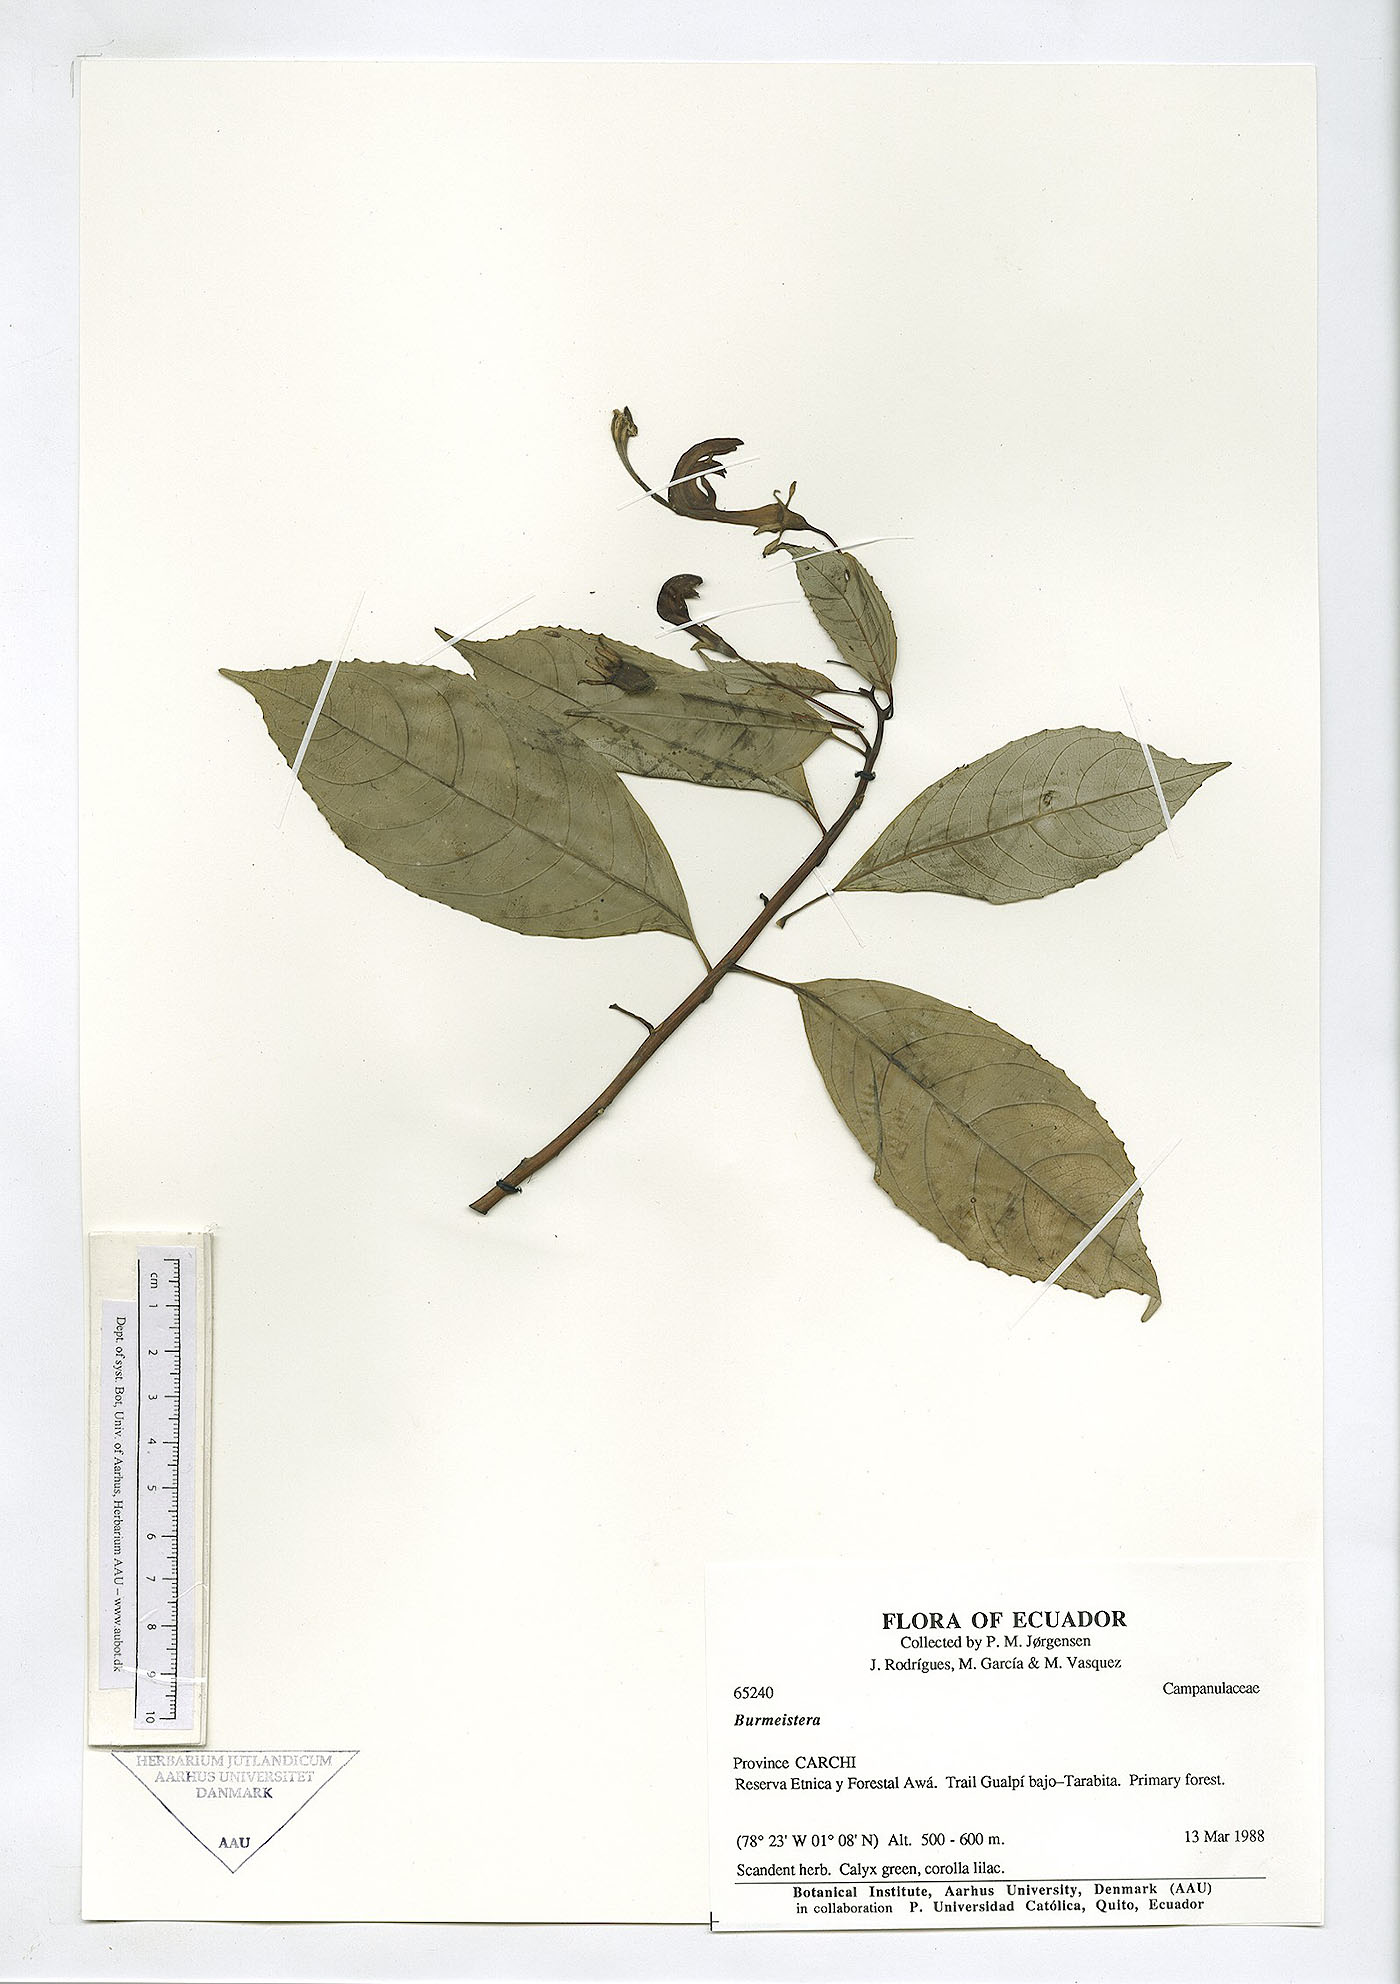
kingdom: Plantae
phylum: Tracheophyta
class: Magnoliopsida
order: Asterales
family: Campanulaceae
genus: Burmeistera
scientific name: Burmeistera
